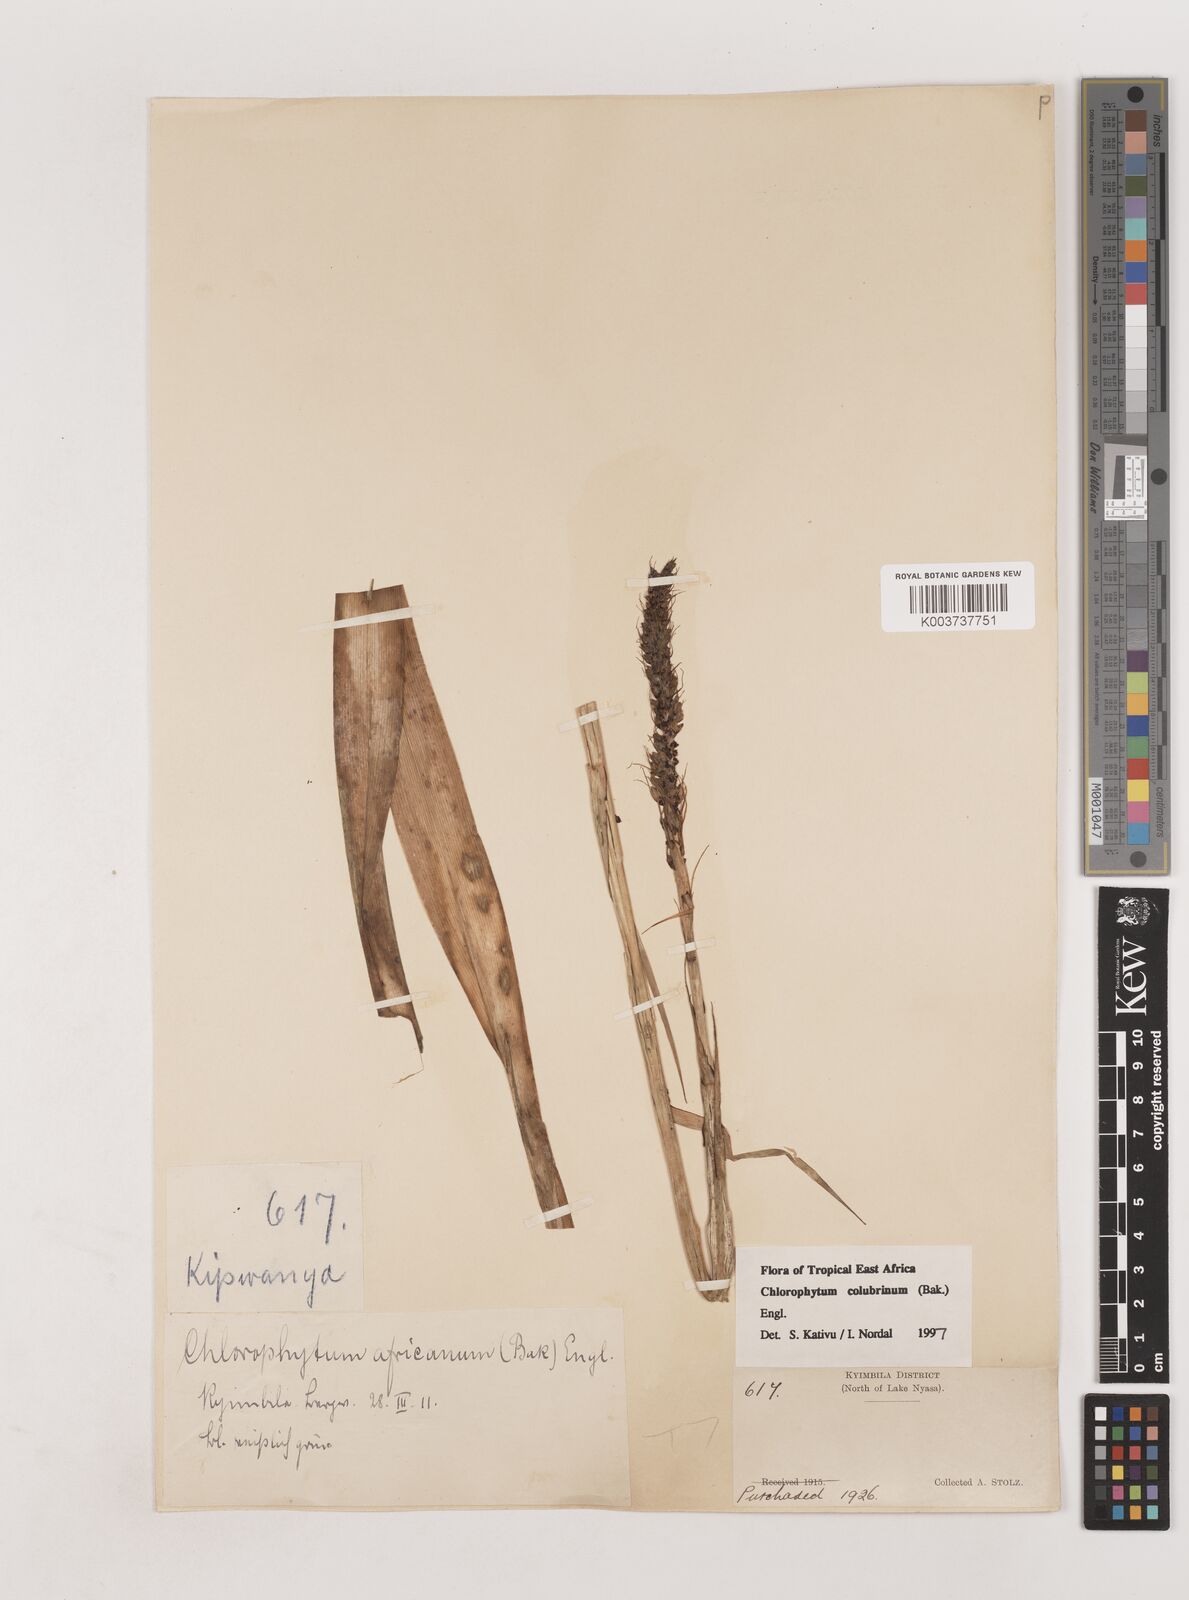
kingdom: Plantae
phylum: Tracheophyta
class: Liliopsida
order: Asparagales
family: Asparagaceae
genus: Chlorophytum
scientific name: Chlorophytum colubrinum
